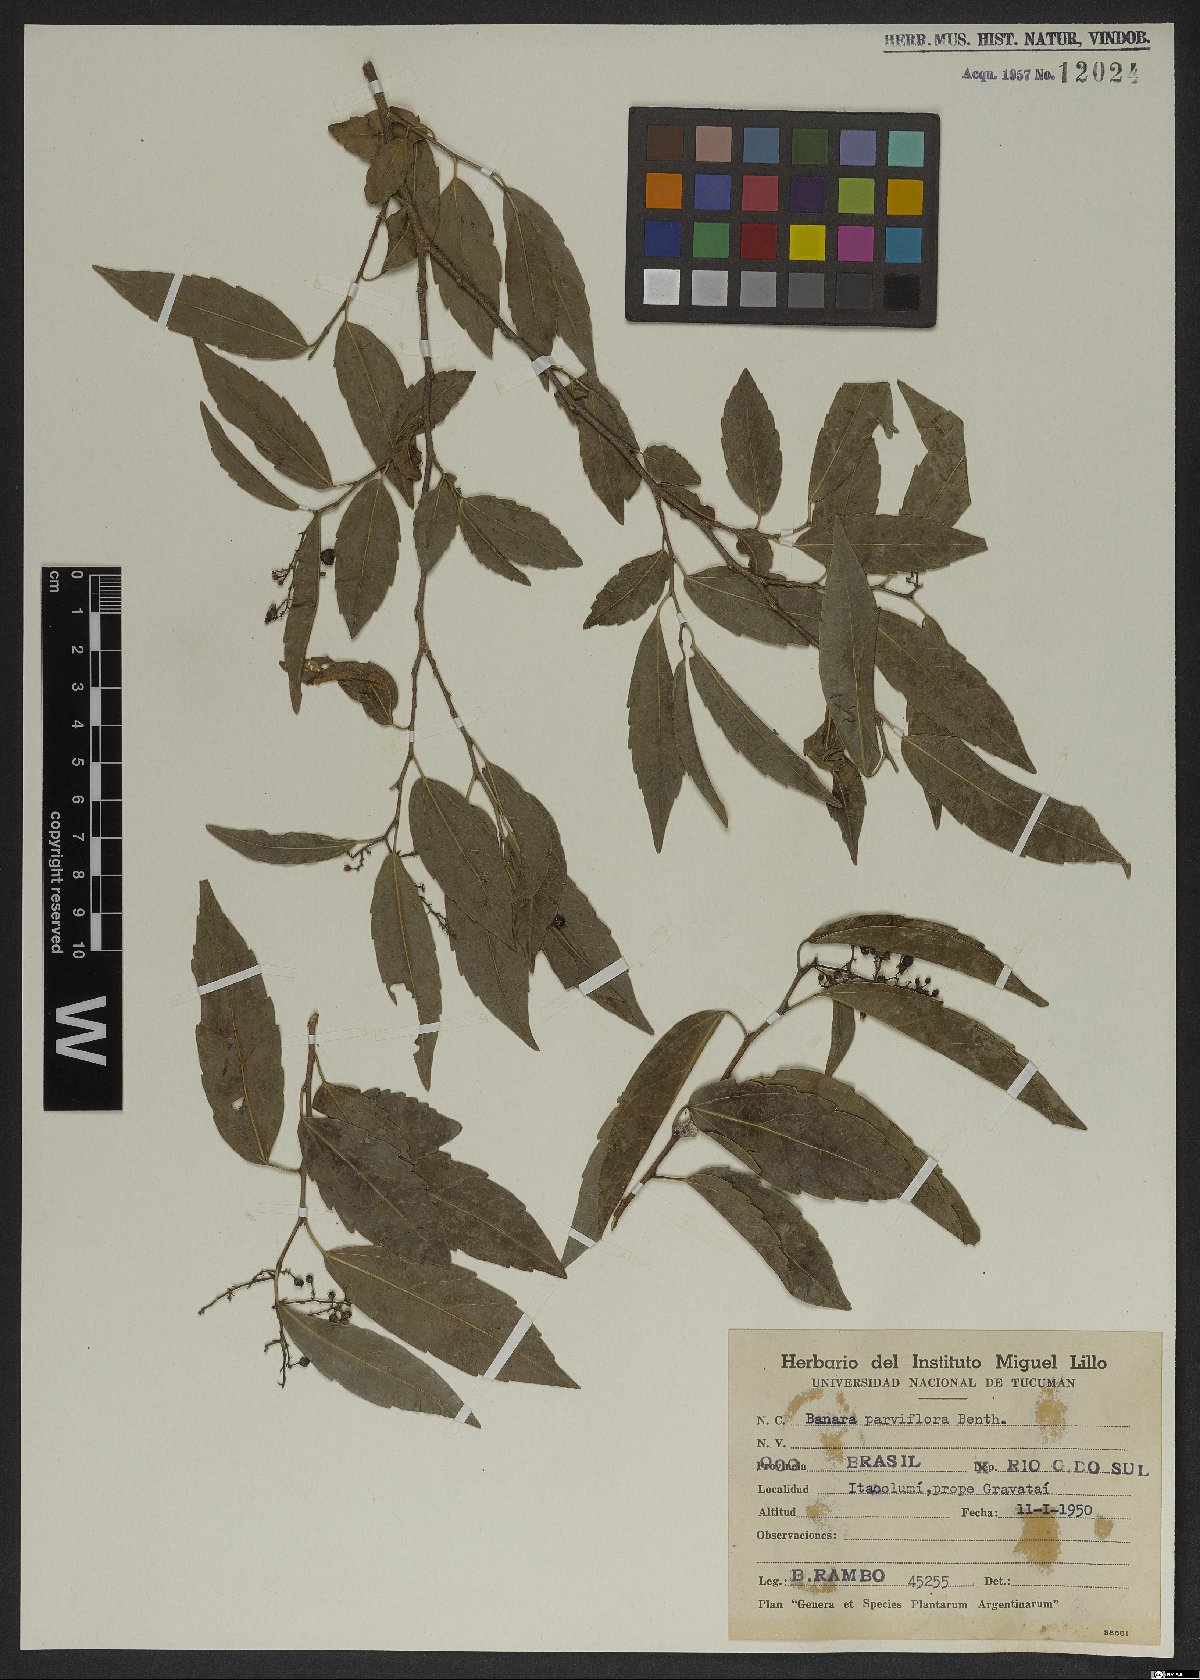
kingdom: Plantae
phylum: Tracheophyta
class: Magnoliopsida
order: Malpighiales
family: Salicaceae
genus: Banara
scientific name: Banara parviflora
